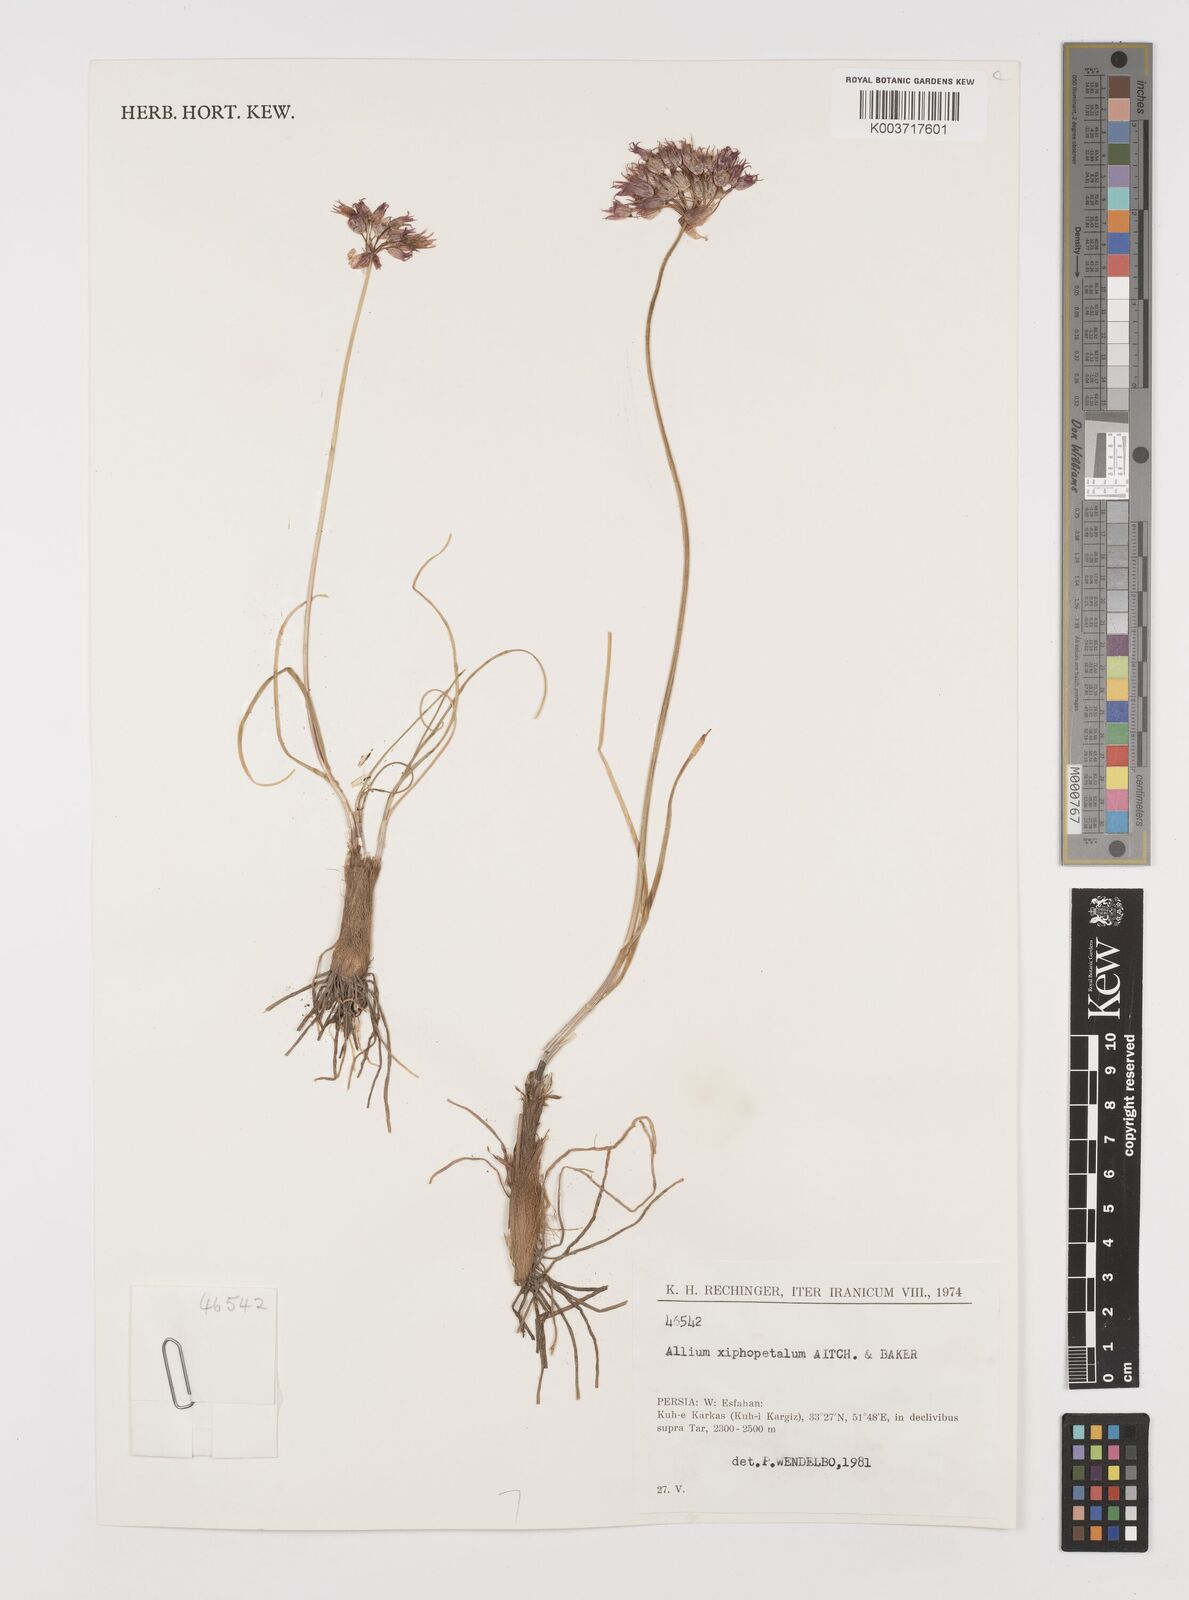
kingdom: Plantae
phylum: Tracheophyta
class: Liliopsida
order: Asparagales
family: Amaryllidaceae
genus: Allium
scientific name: Allium xiphopetalum
